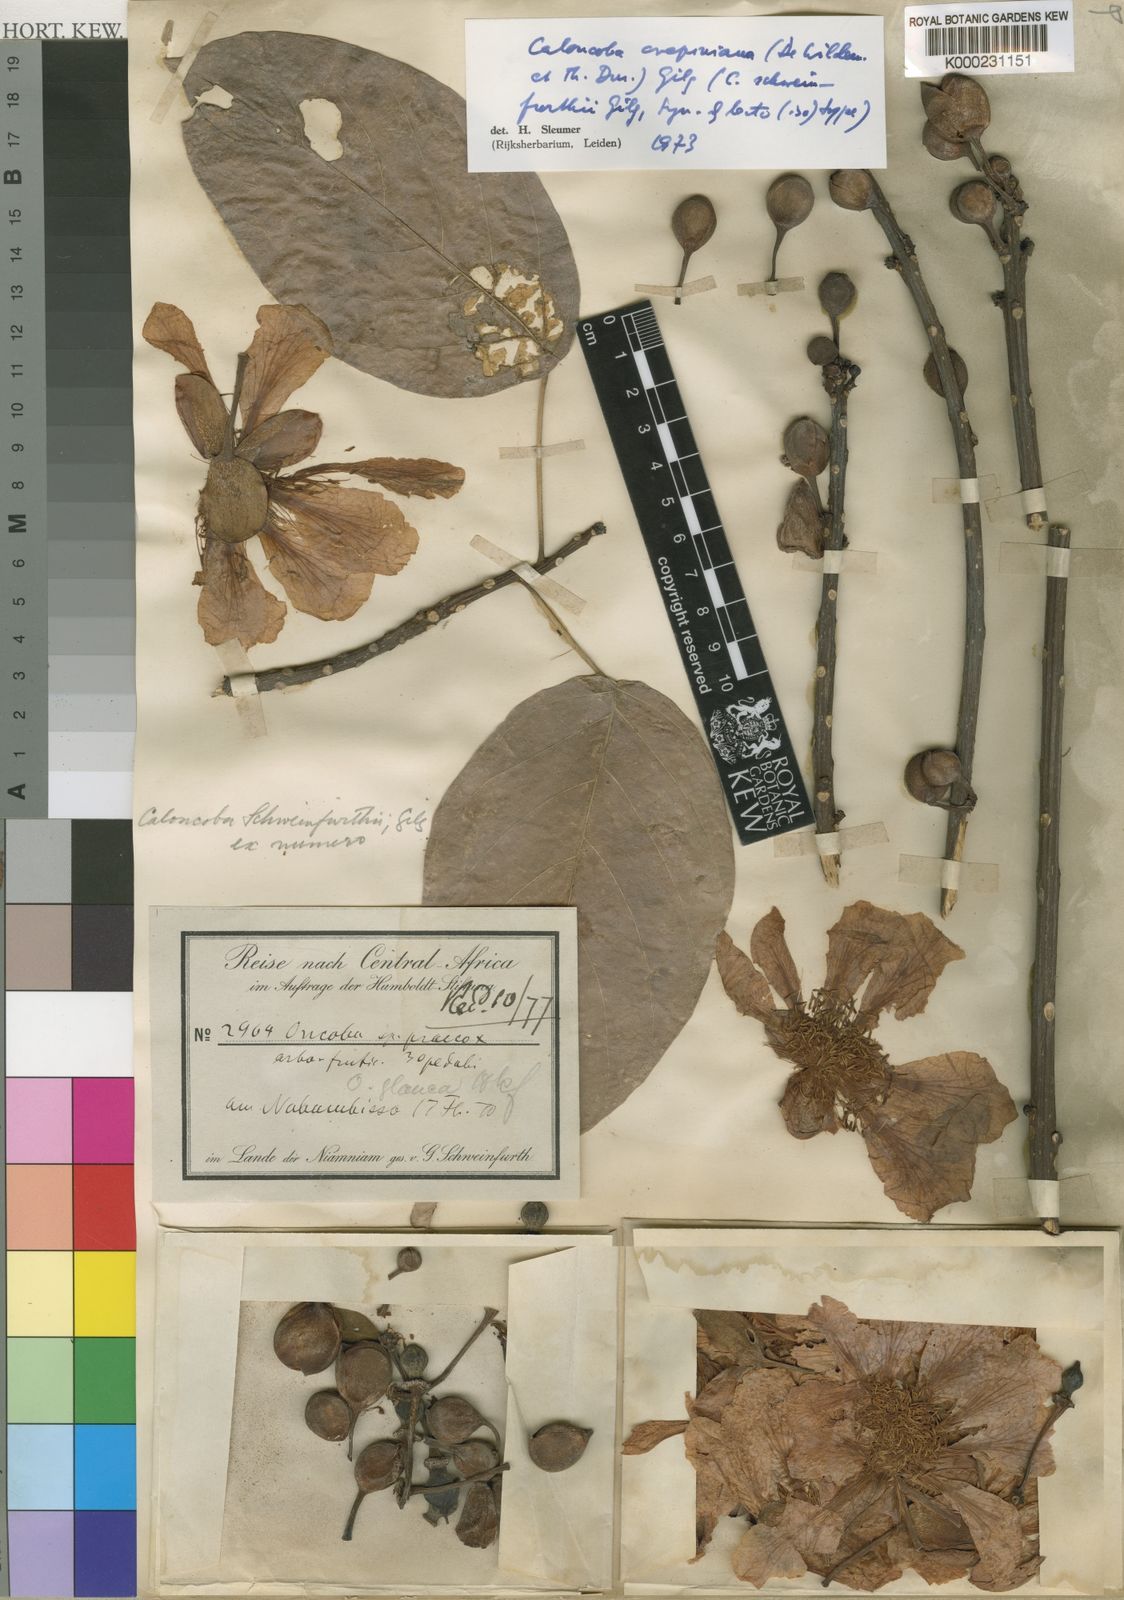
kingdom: Plantae
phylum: Tracheophyta
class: Magnoliopsida
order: Malpighiales
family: Achariaceae
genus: Caloncoba
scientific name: Caloncoba crepiniana
